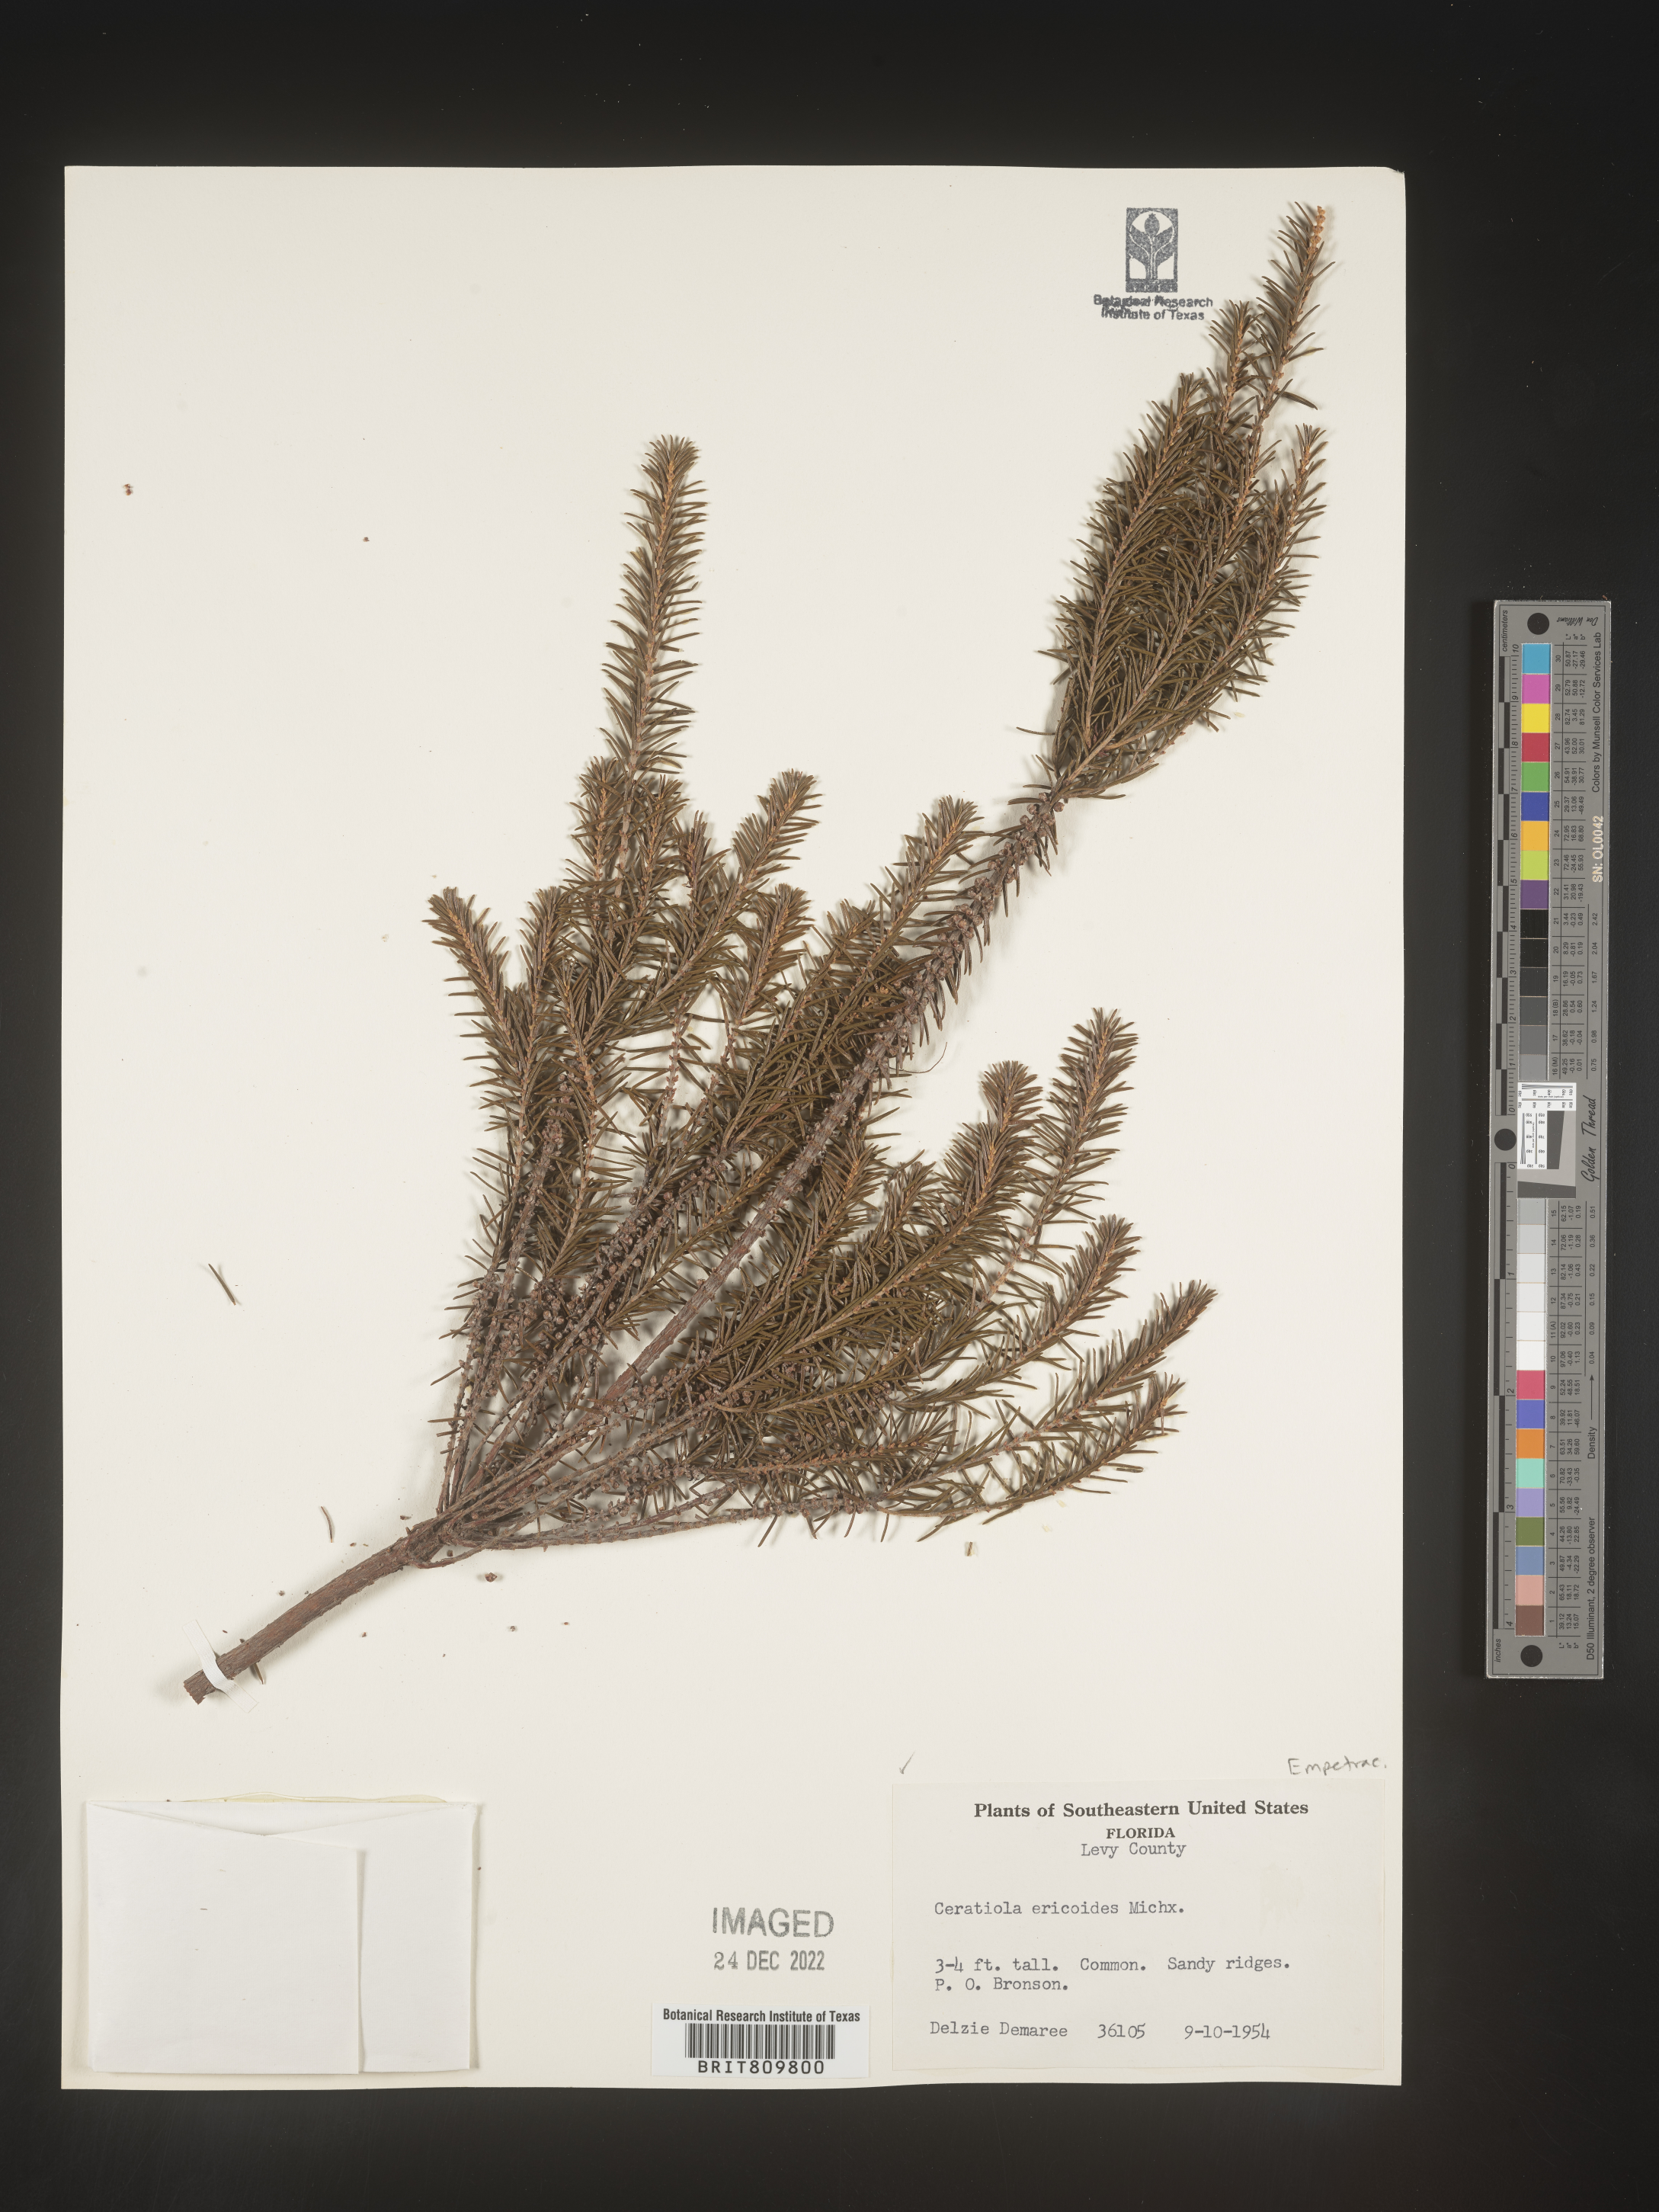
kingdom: Plantae
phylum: Tracheophyta
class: Magnoliopsida
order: Ericales
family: Ericaceae
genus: Ceratiola
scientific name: Ceratiola ericoides
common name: Sandhill-rosemary
